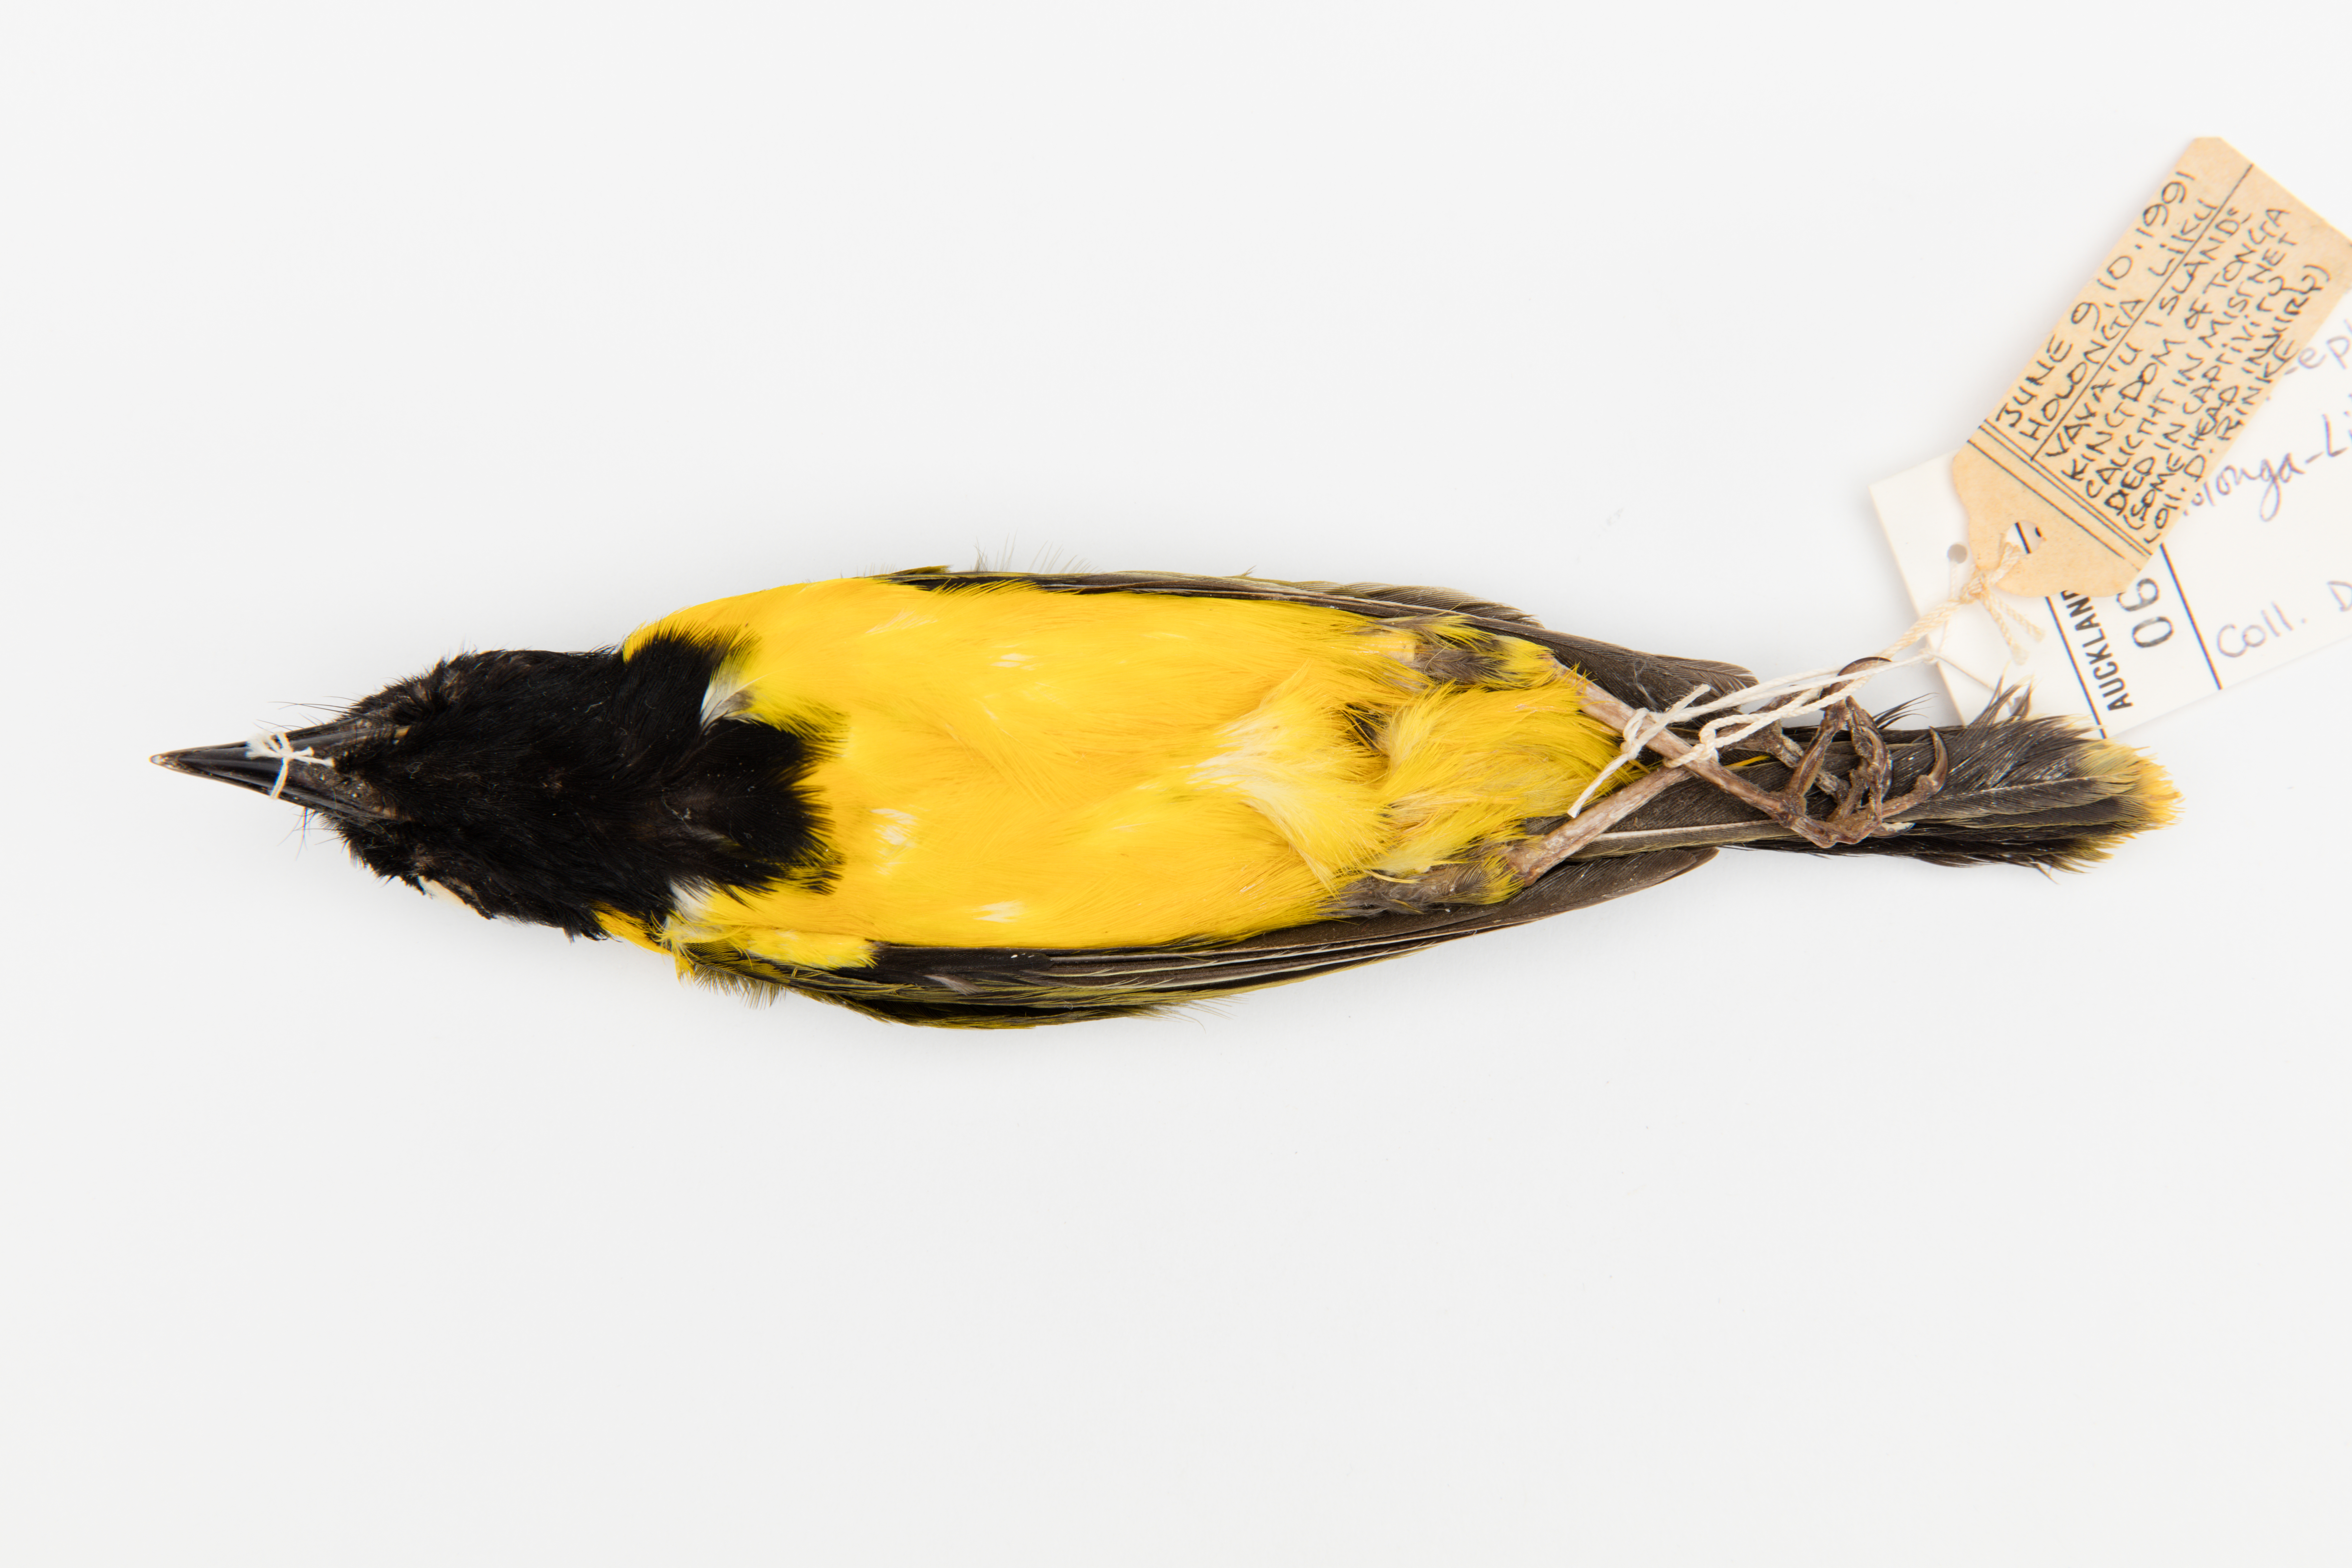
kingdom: Animalia
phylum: Chordata
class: Aves
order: Passeriformes
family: Pachycephalidae
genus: Pachycephala
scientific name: Pachycephala jacquinoti
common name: Tongan whistler
